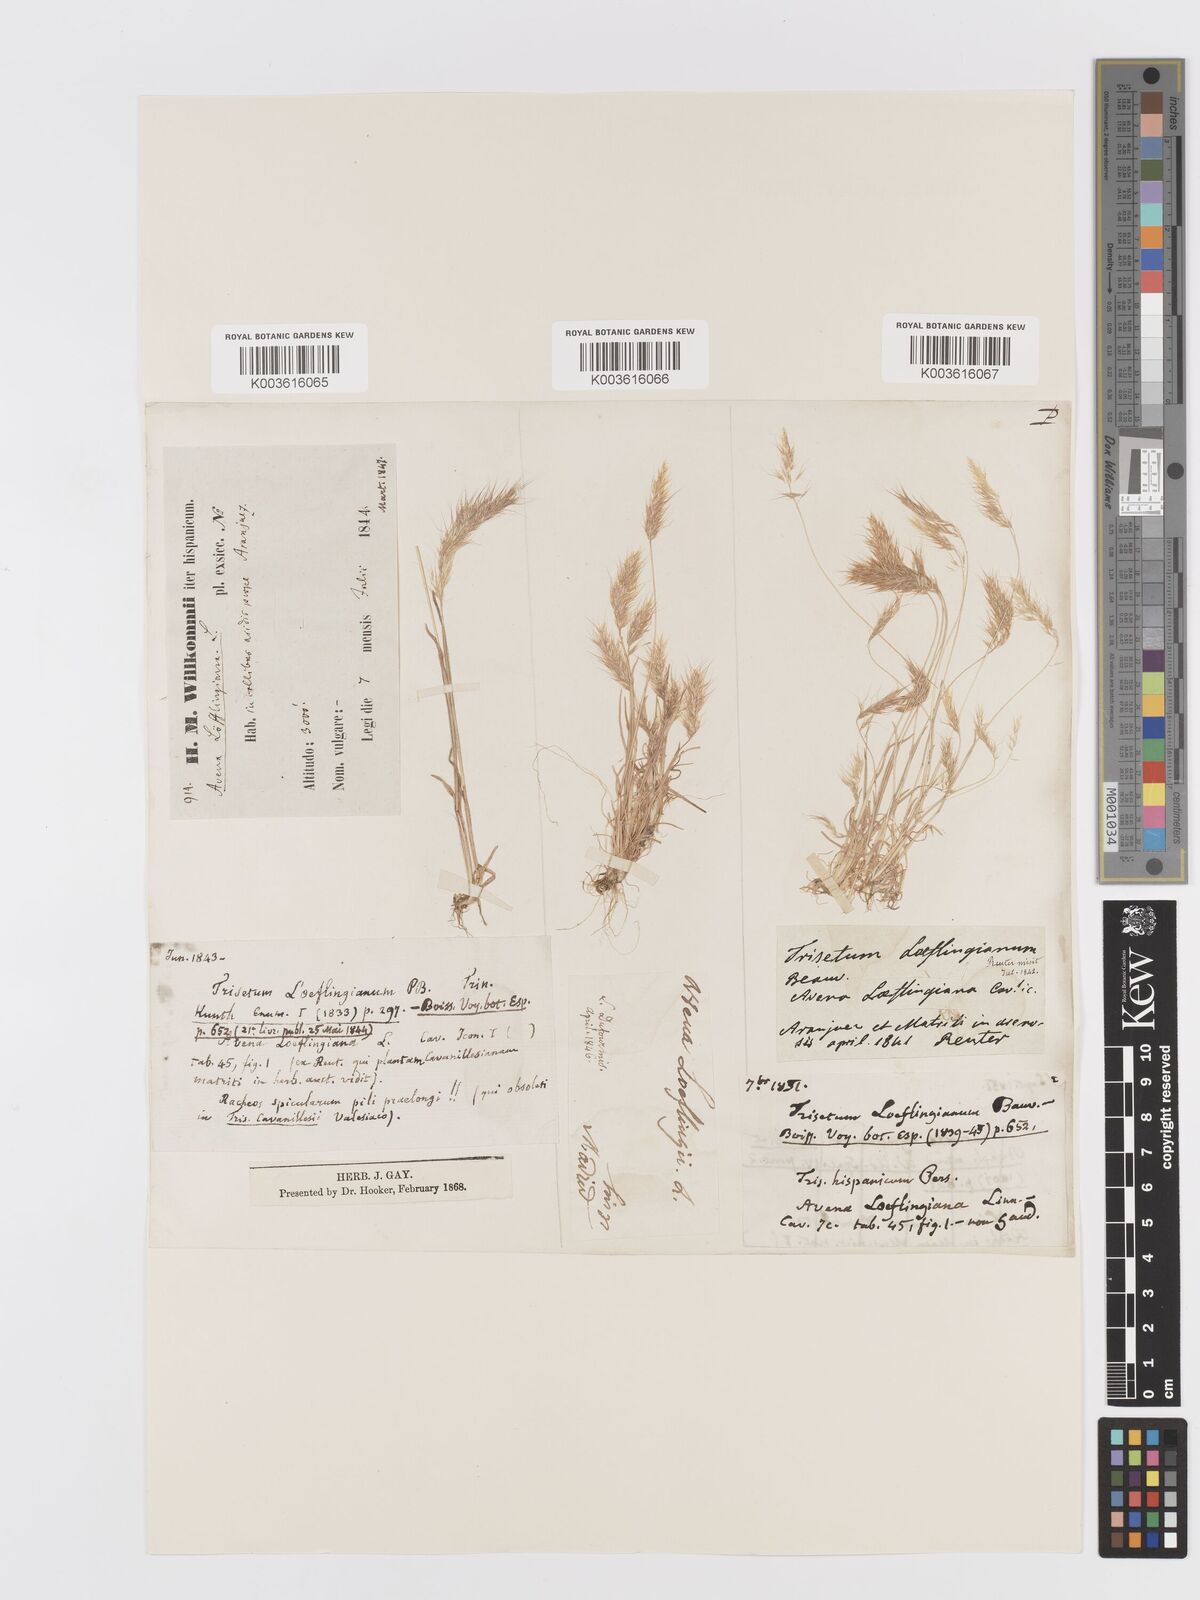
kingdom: Plantae
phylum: Tracheophyta
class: Liliopsida
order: Poales
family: Poaceae
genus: Trisetaria
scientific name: Trisetaria loeflingiana
